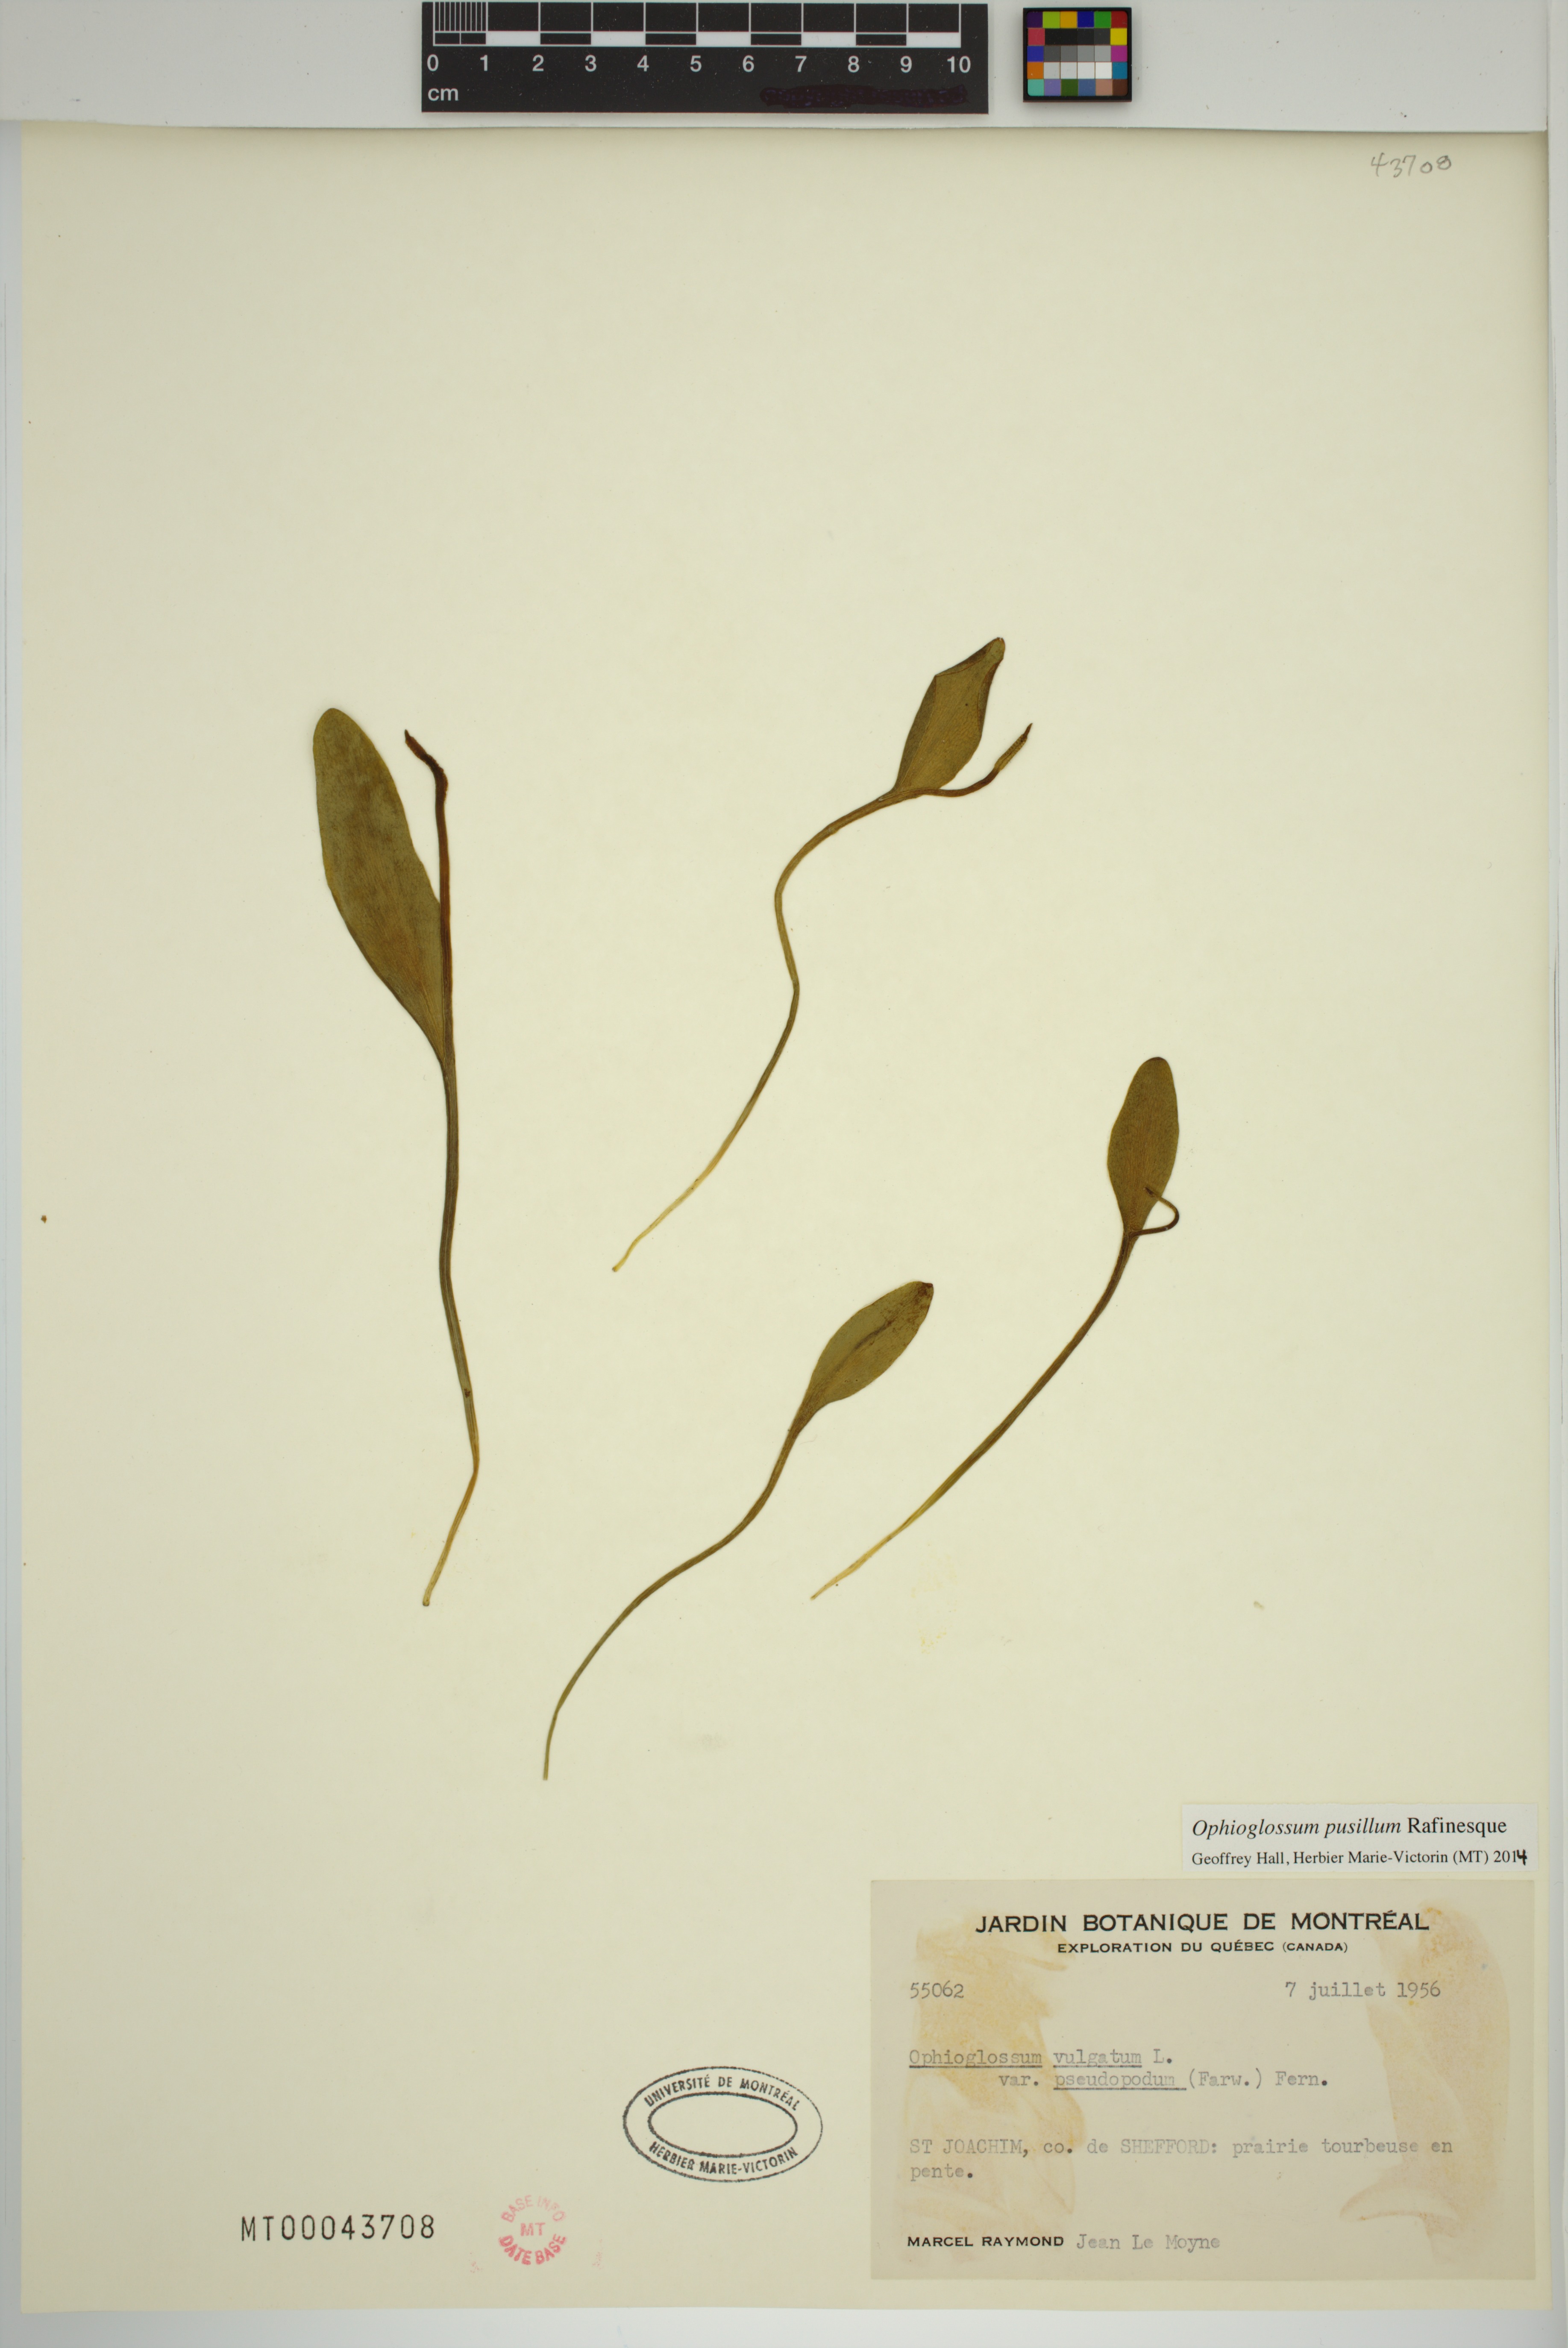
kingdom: Plantae
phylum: Tracheophyta
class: Polypodiopsida
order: Ophioglossales
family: Ophioglossaceae
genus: Ophioglossum
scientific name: Ophioglossum pusillum
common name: Northern adder's-tongue
